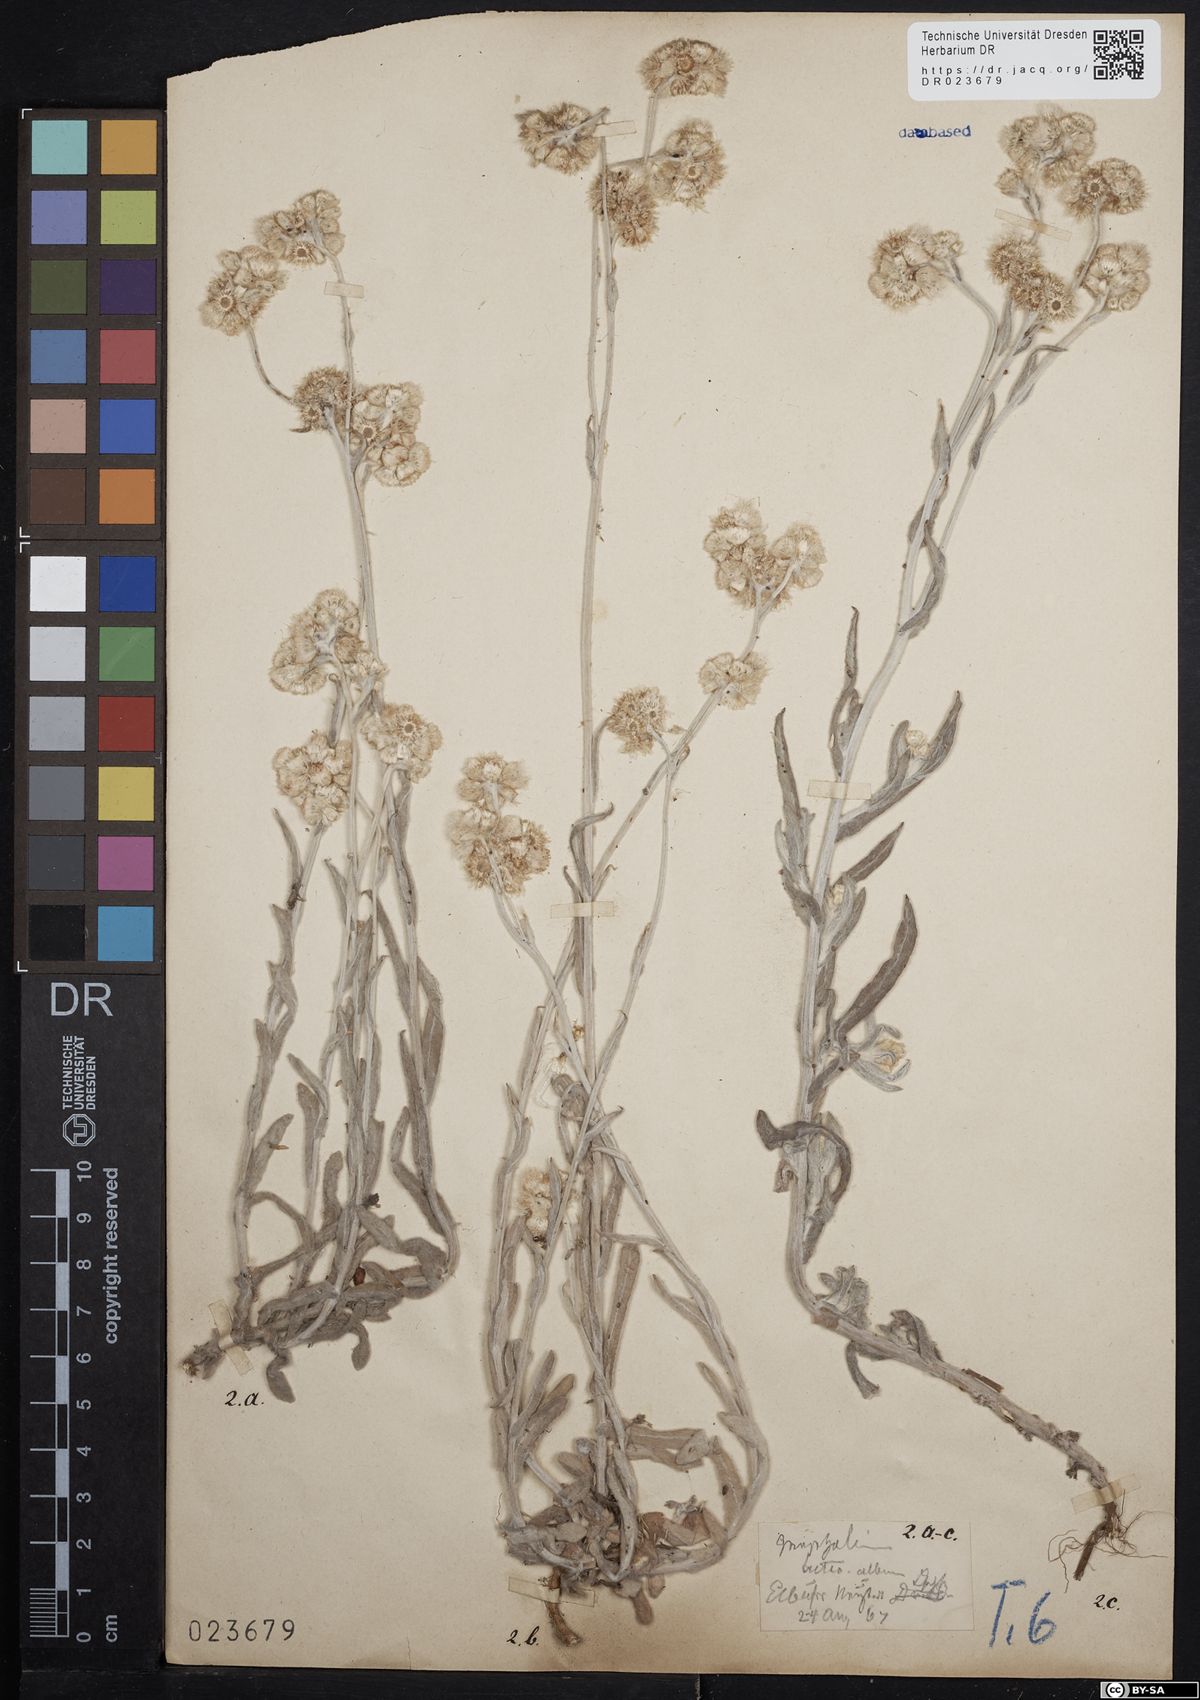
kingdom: Plantae
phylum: Tracheophyta
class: Magnoliopsida
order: Asterales
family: Asteraceae
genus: Helichrysum
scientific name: Helichrysum luteoalbum
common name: Daisy
